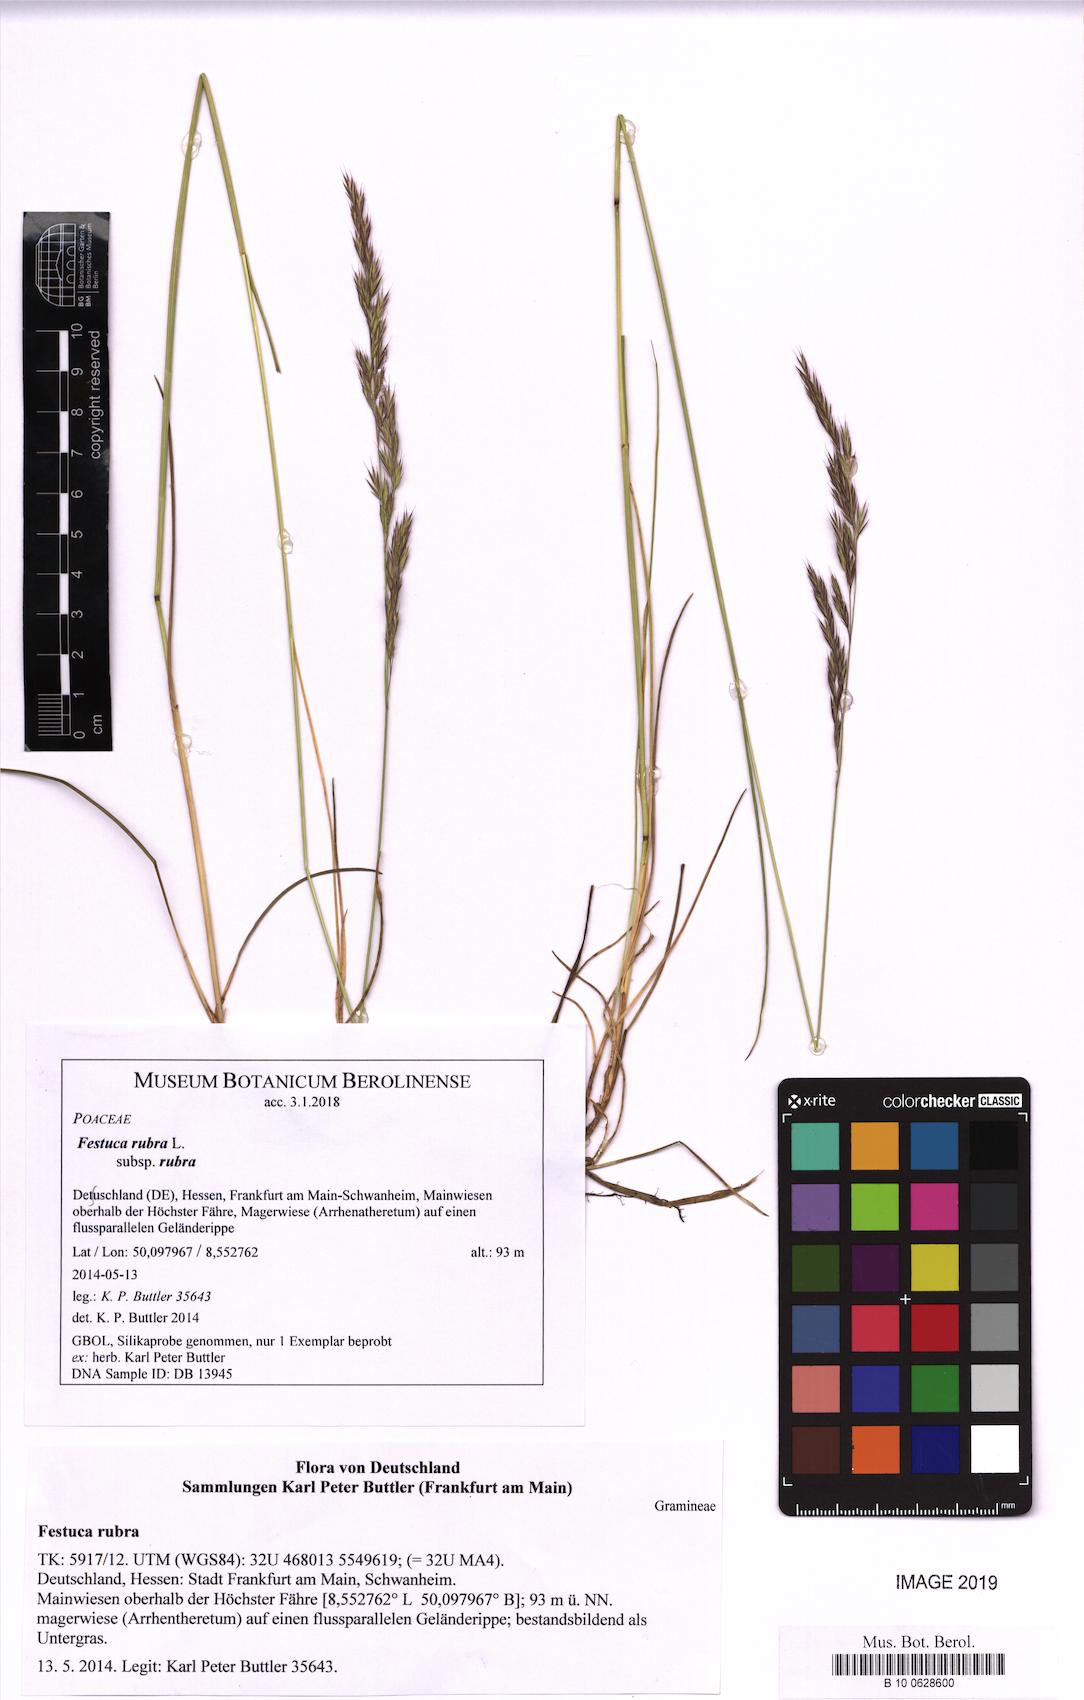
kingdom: Plantae
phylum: Tracheophyta
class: Liliopsida
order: Poales
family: Poaceae
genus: Festuca
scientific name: Festuca rubra
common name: Red fescue
